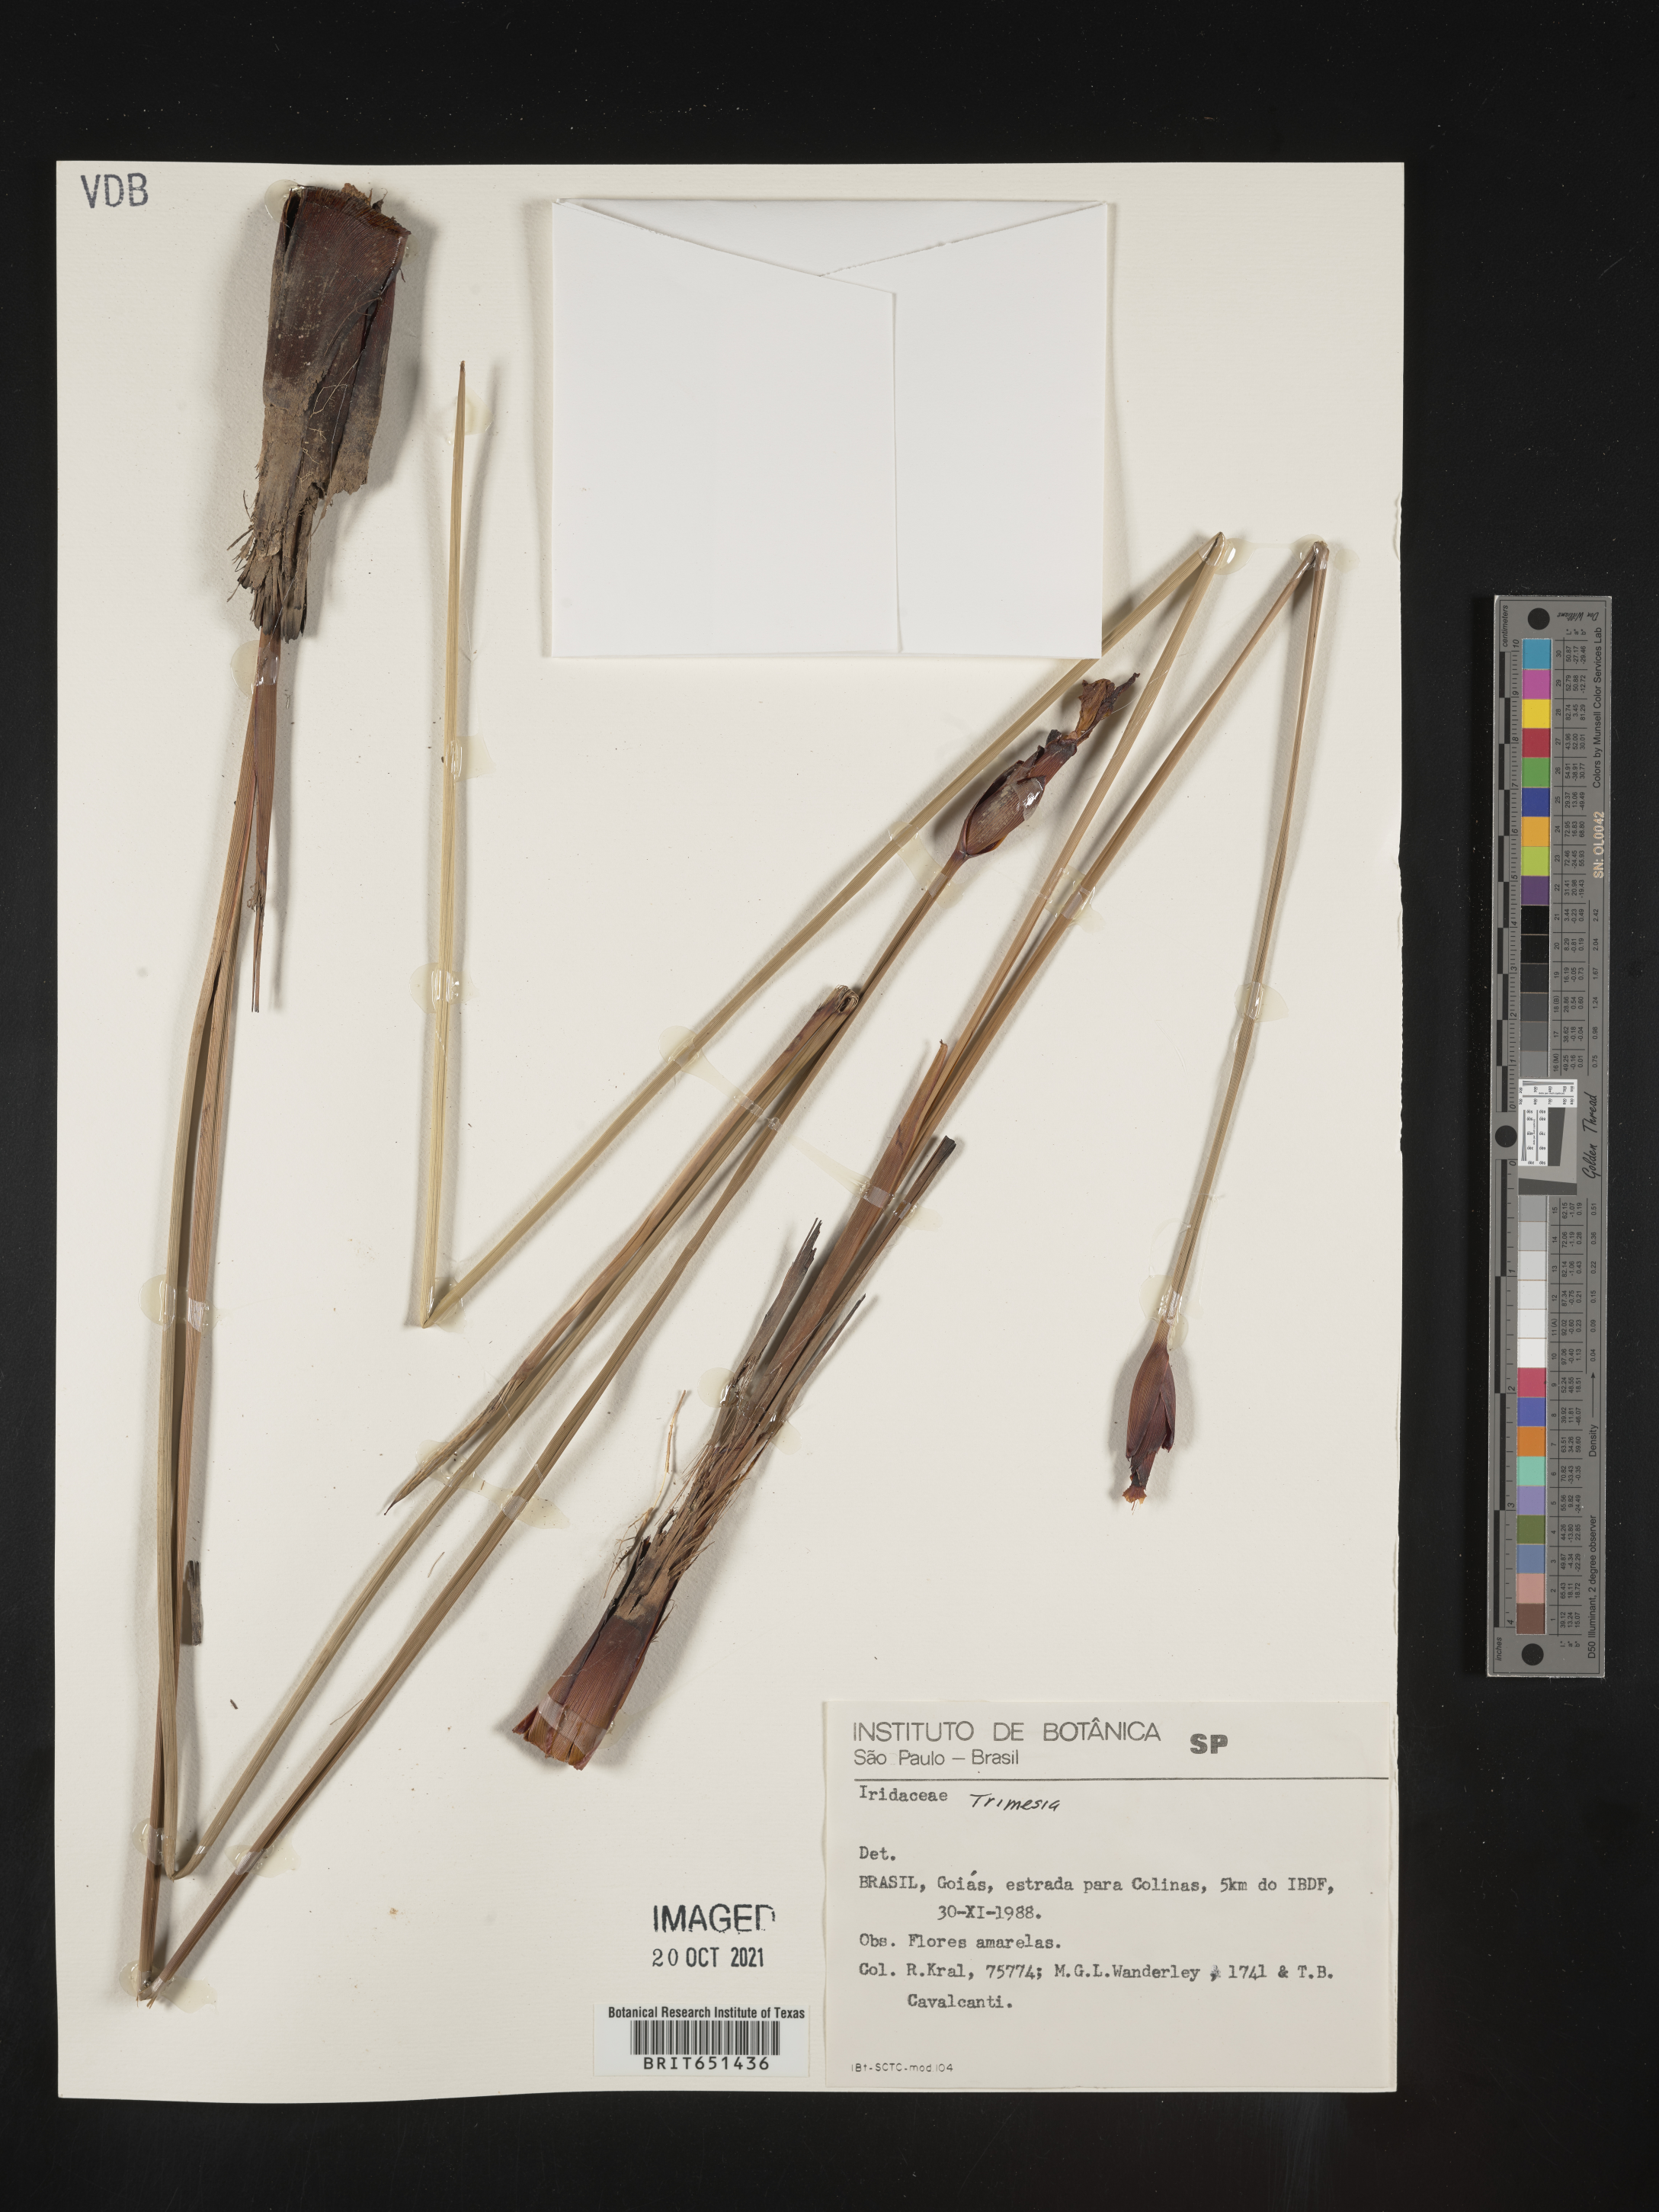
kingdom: Plantae
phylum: Tracheophyta
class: Liliopsida
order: Asparagales
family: Iridaceae
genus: Trimezia
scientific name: Trimezia
